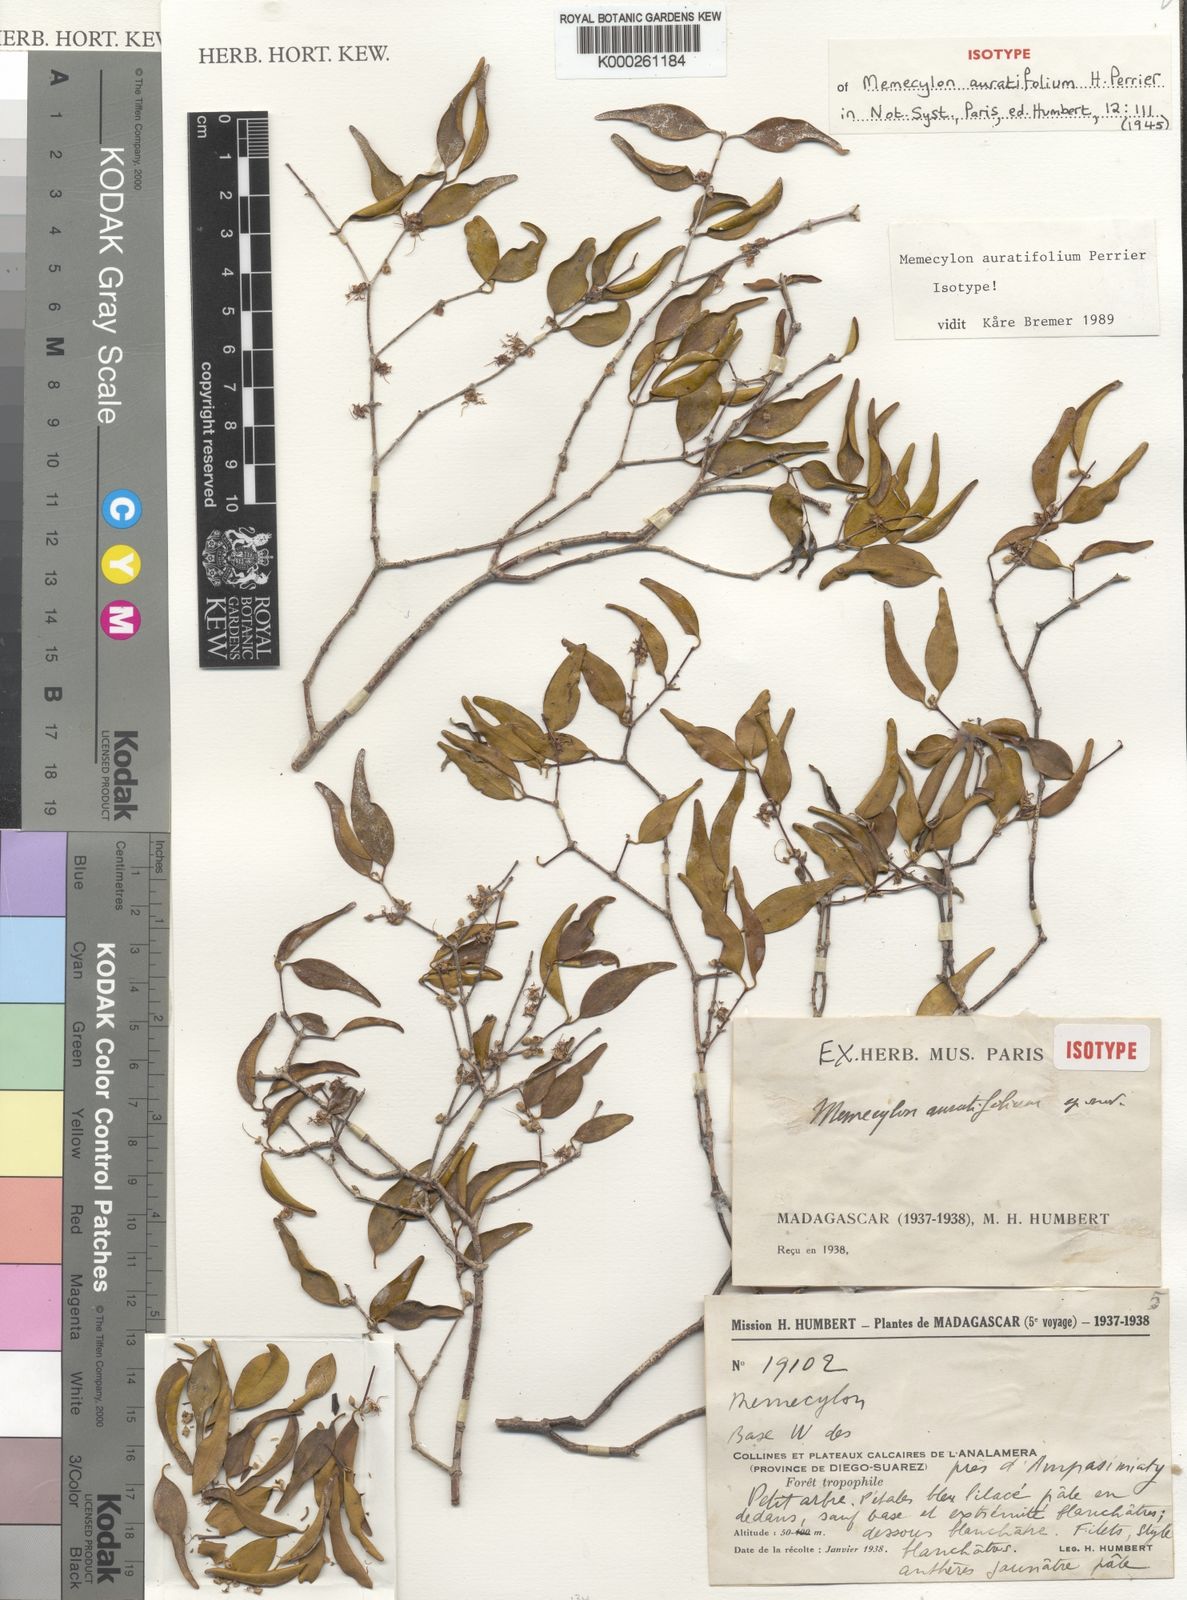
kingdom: Plantae
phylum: Tracheophyta
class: Magnoliopsida
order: Myrtales
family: Melastomataceae
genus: Memecylon
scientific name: Memecylon auratifolium
